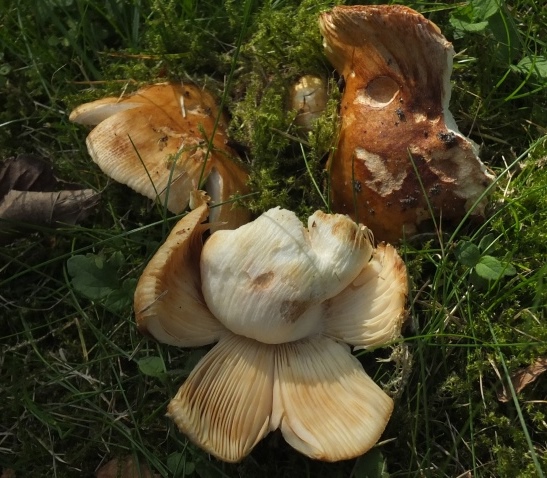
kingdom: Fungi
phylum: Basidiomycota
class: Agaricomycetes
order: Russulales
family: Russulaceae
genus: Russula
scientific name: Russula subfoetens
